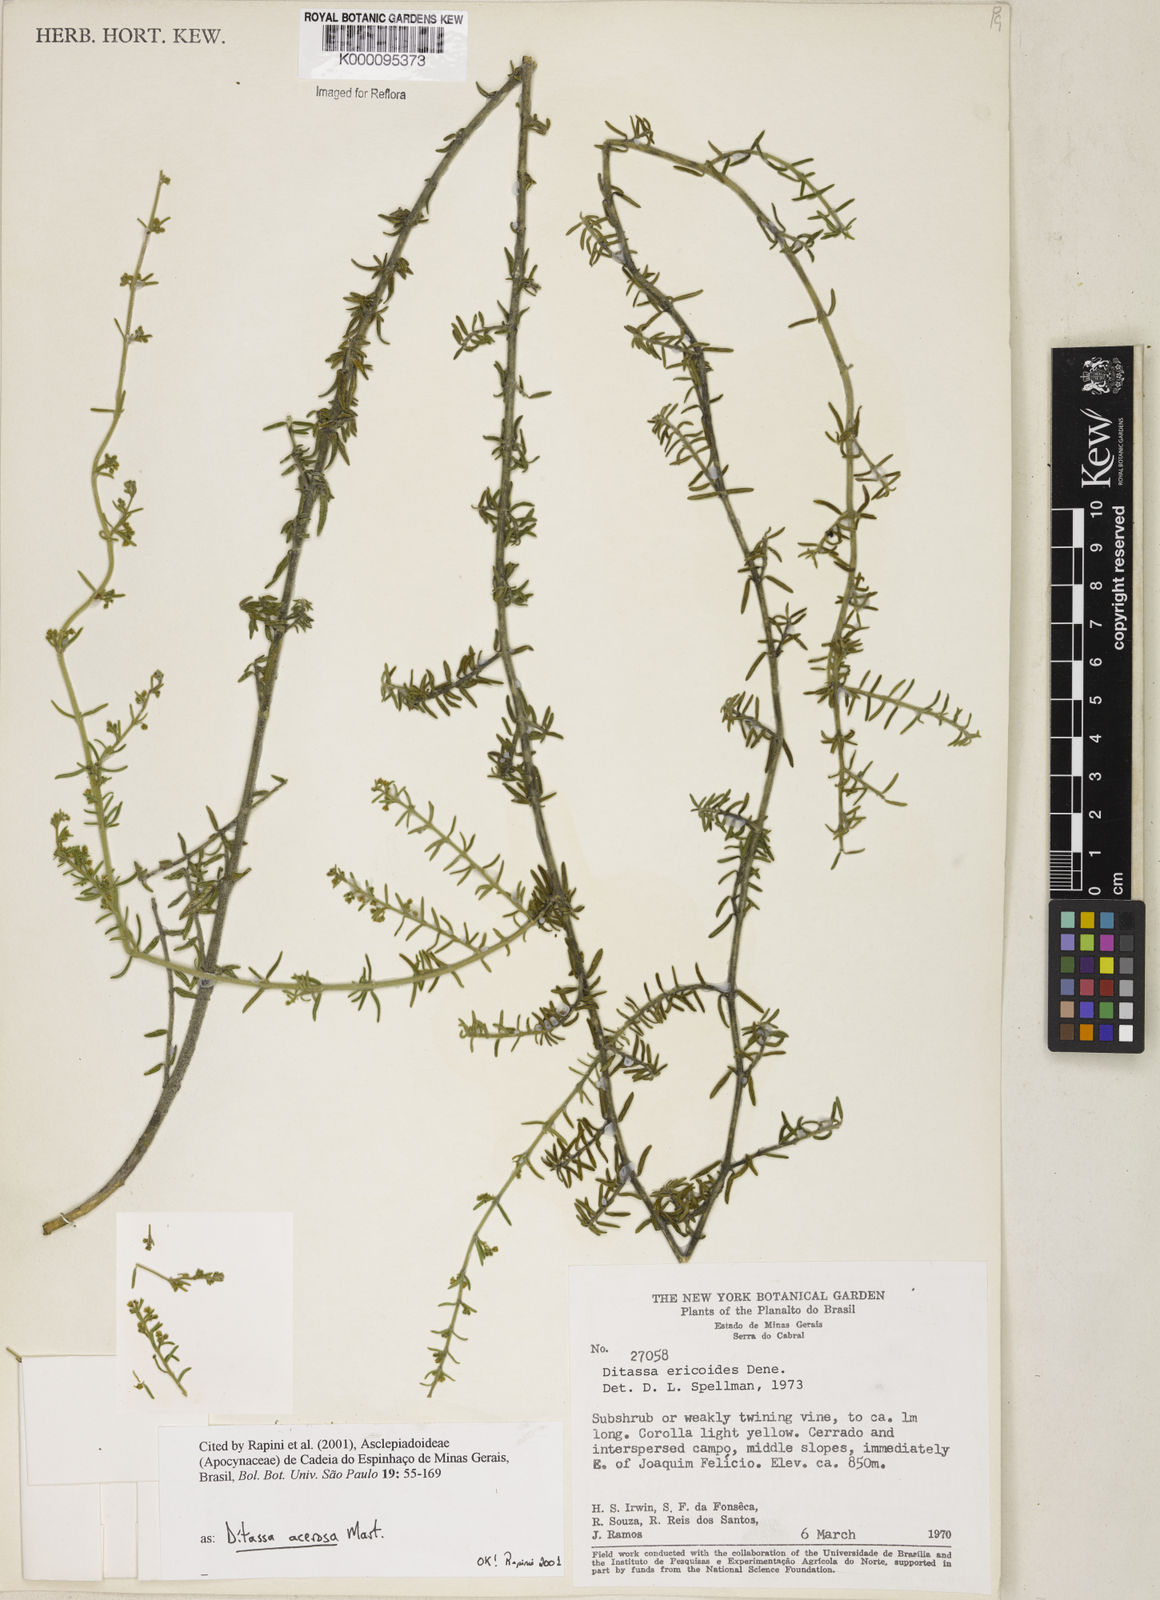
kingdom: Plantae
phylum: Tracheophyta
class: Magnoliopsida
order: Gentianales
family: Apocynaceae
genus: Minaria
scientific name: Minaria acerosa
